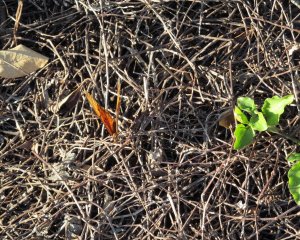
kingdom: Animalia
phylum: Arthropoda
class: Insecta
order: Lepidoptera
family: Nymphalidae
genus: Dione
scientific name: Dione vanillae
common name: Gulf Fritillary
